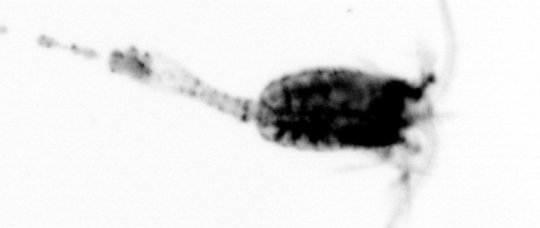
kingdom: Animalia
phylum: Arthropoda
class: Copepoda
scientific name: Copepoda
